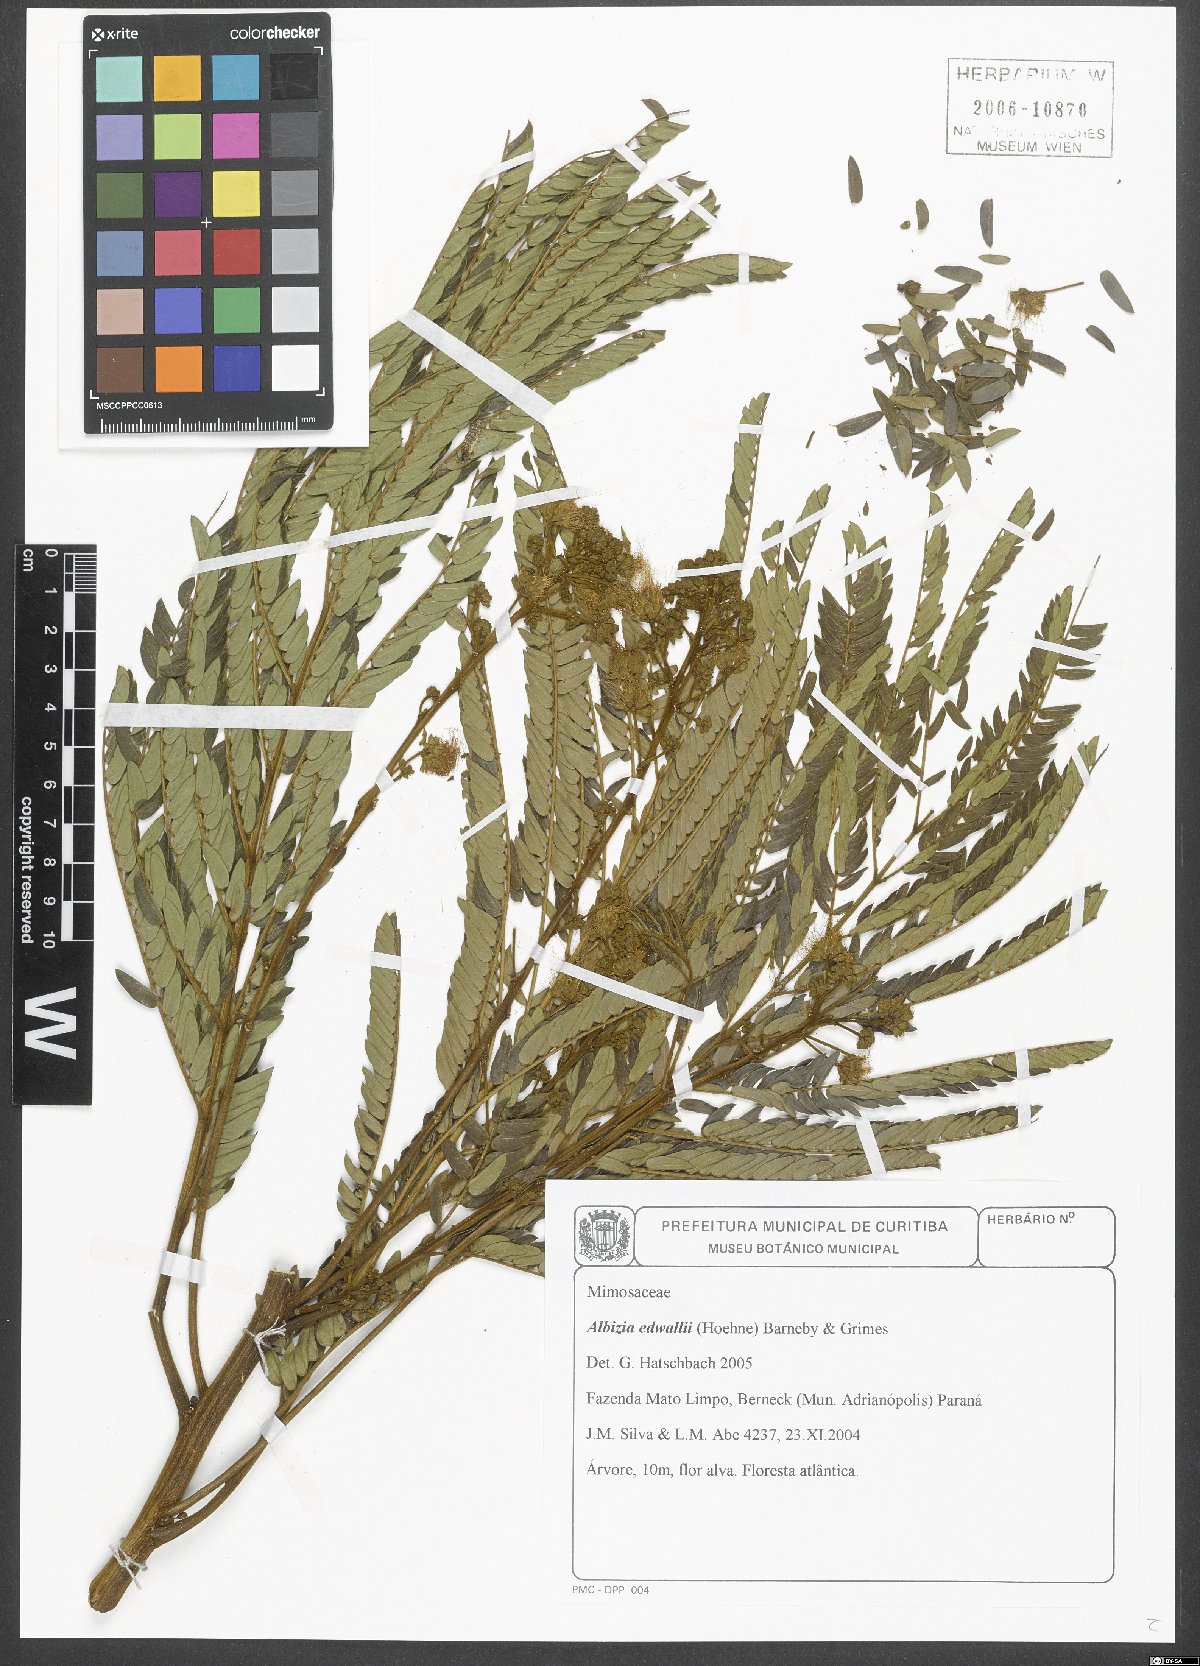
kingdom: Plantae
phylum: Tracheophyta
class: Magnoliopsida
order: Fabales
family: Fabaceae
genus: Albizia
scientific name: Albizia edwallii
